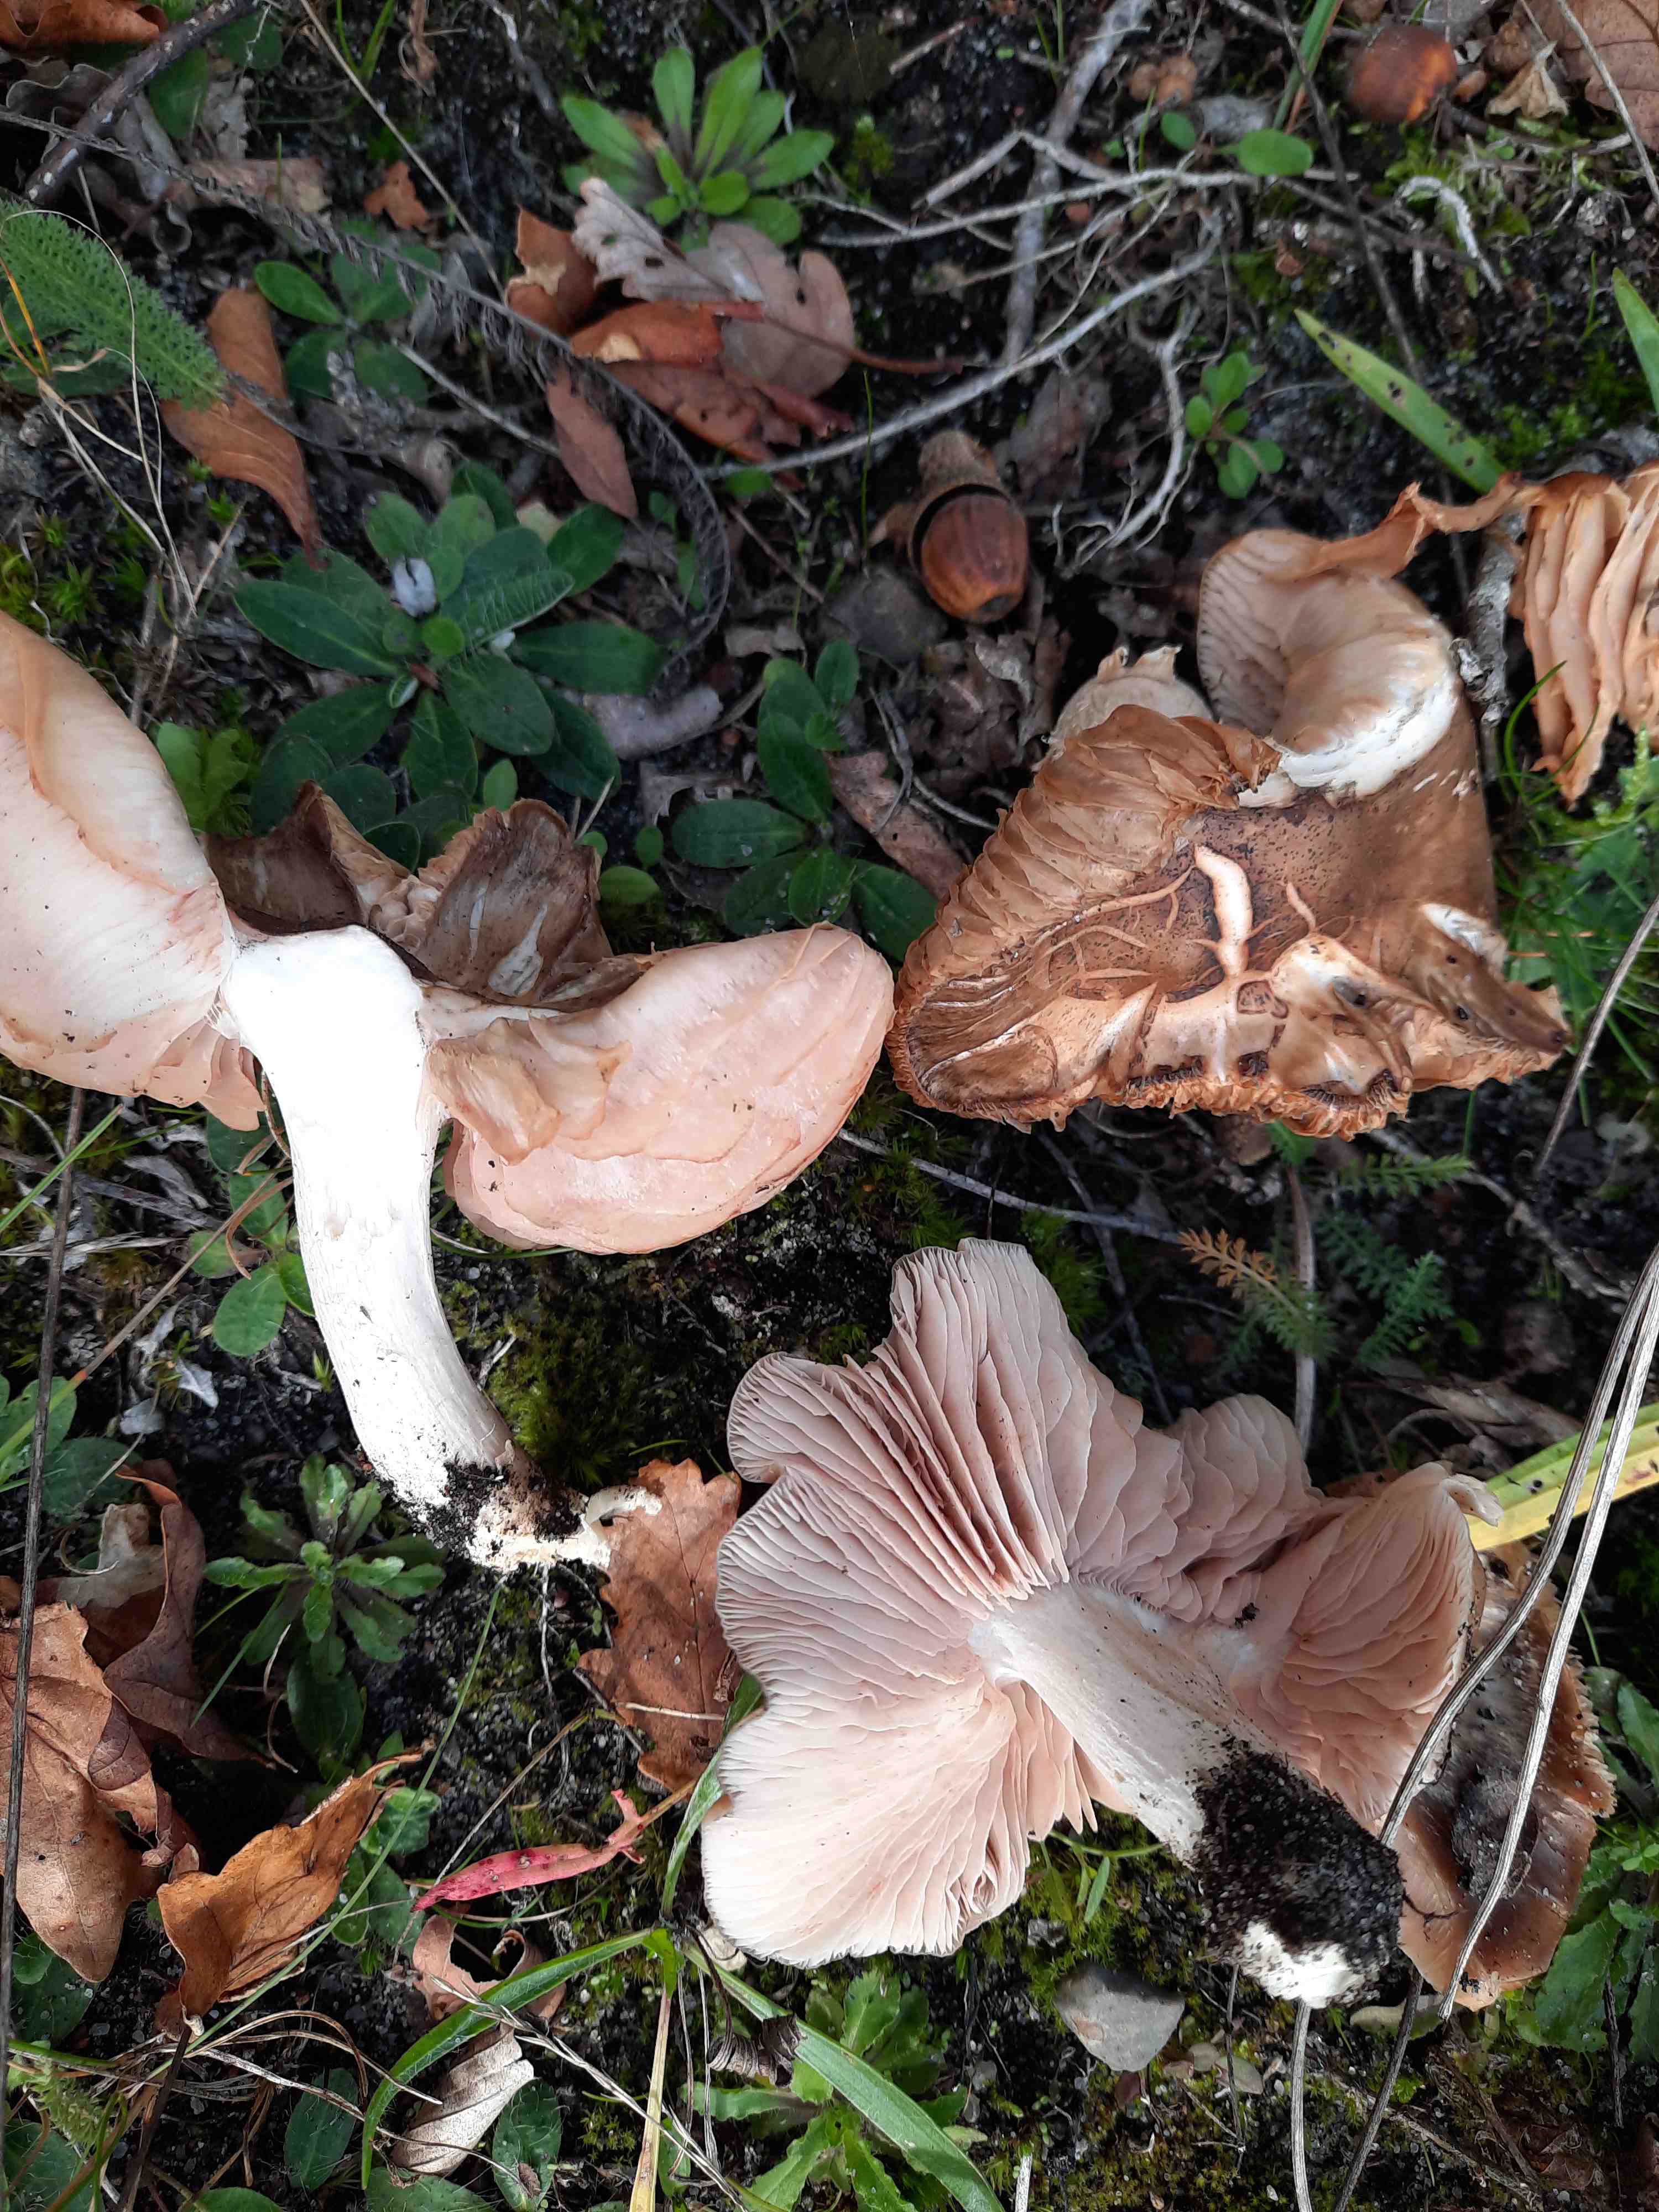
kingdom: Fungi
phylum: Basidiomycota
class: Agaricomycetes
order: Agaricales
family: Entolomataceae
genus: Entoloma
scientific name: Entoloma
